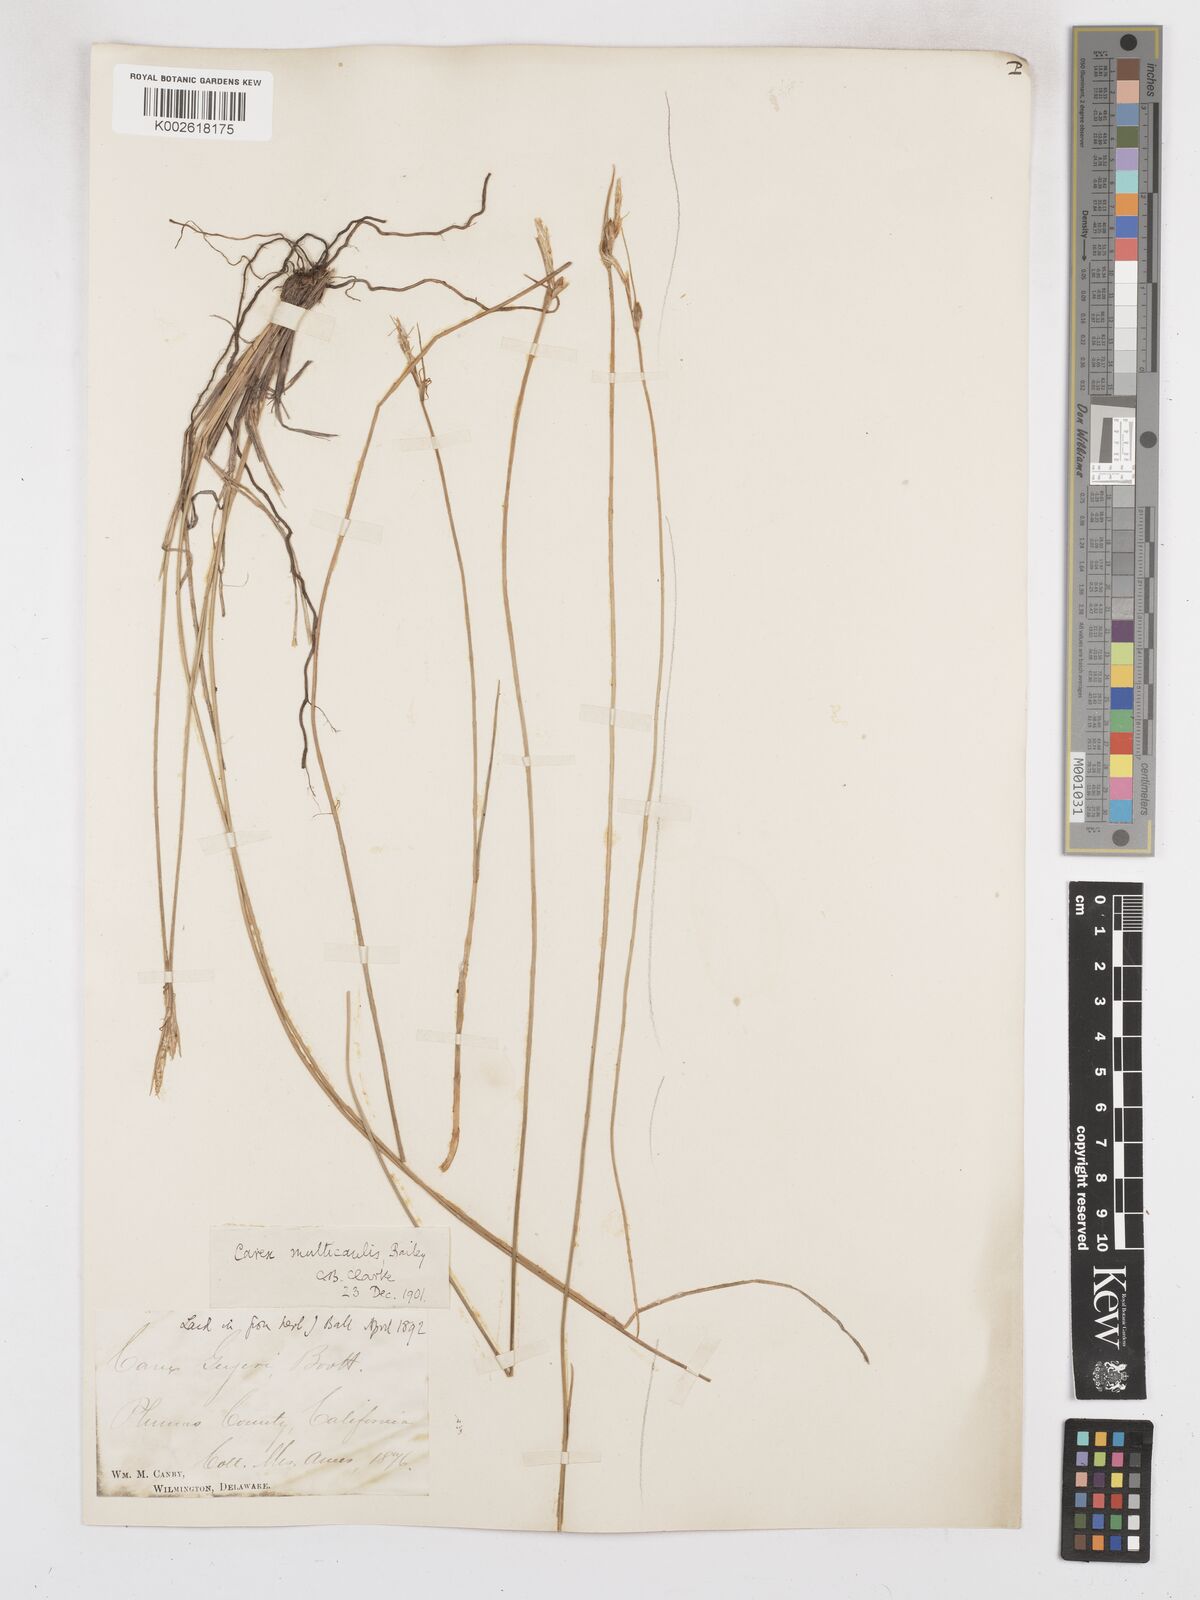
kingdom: Plantae
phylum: Tracheophyta
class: Liliopsida
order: Poales
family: Cyperaceae
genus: Carex
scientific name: Carex multicaulis
